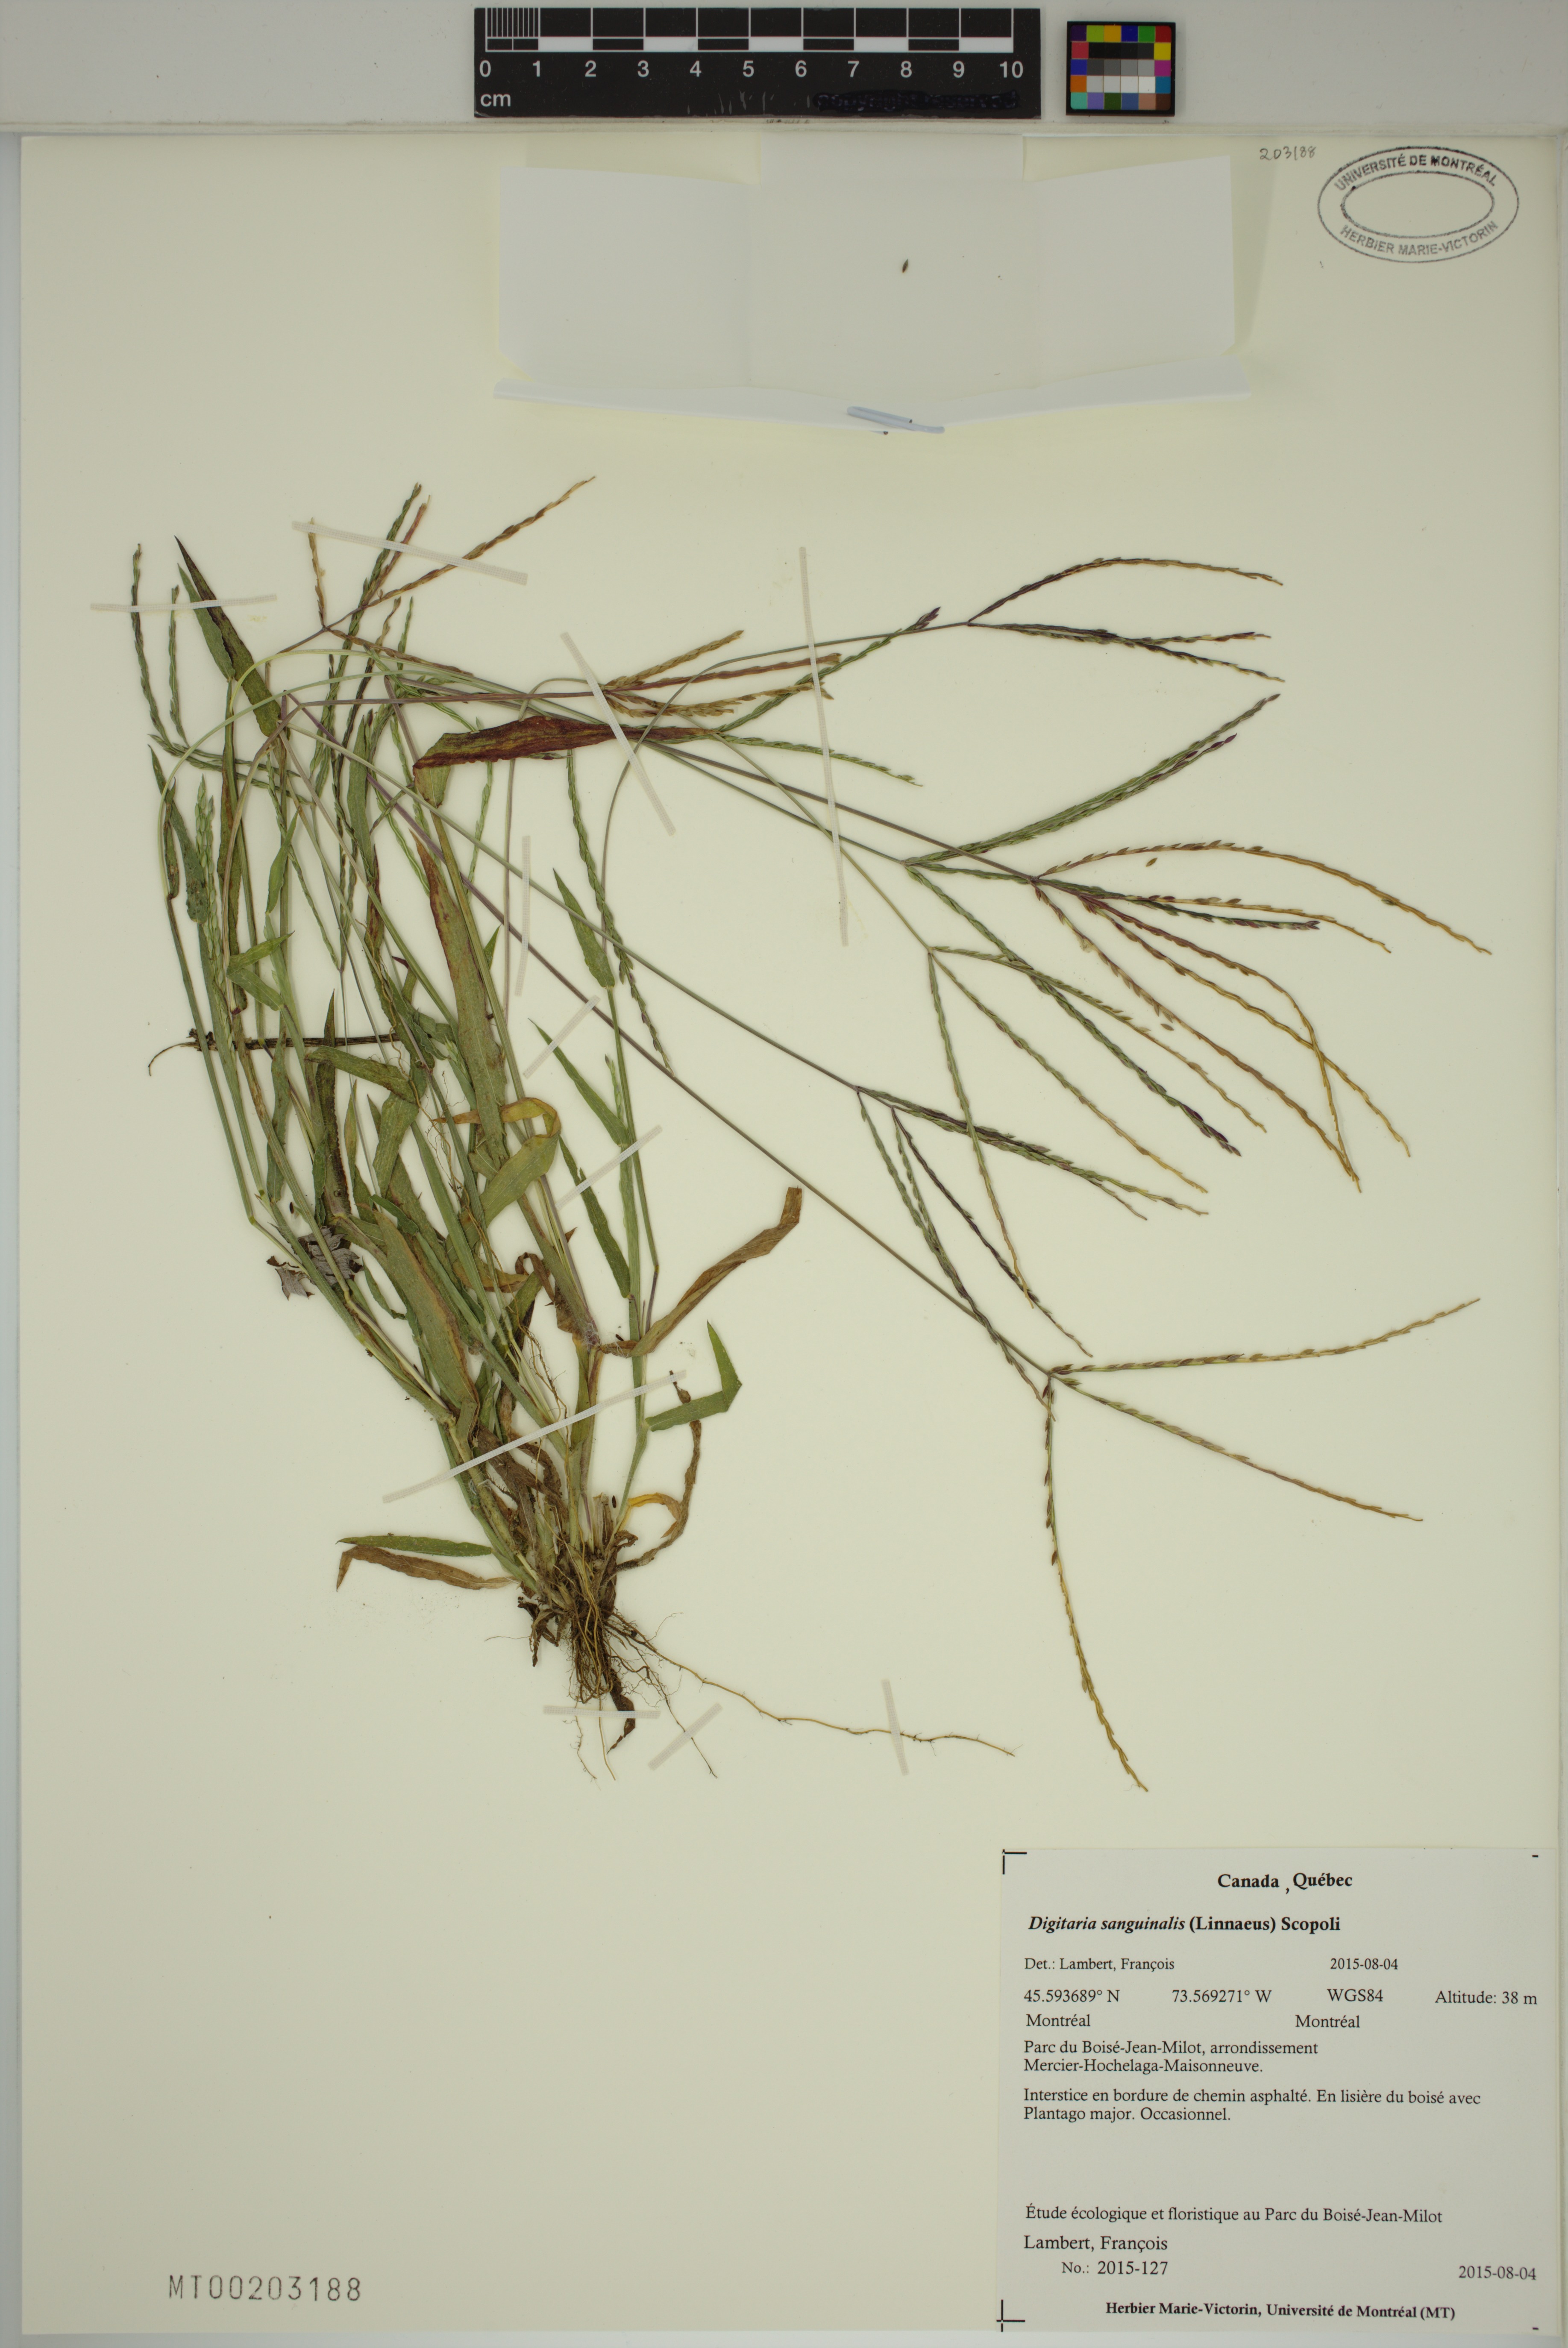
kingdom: Plantae
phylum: Tracheophyta
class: Liliopsida
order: Poales
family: Poaceae
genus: Digitaria
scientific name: Digitaria sanguinalis
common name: Hairy crabgrass
